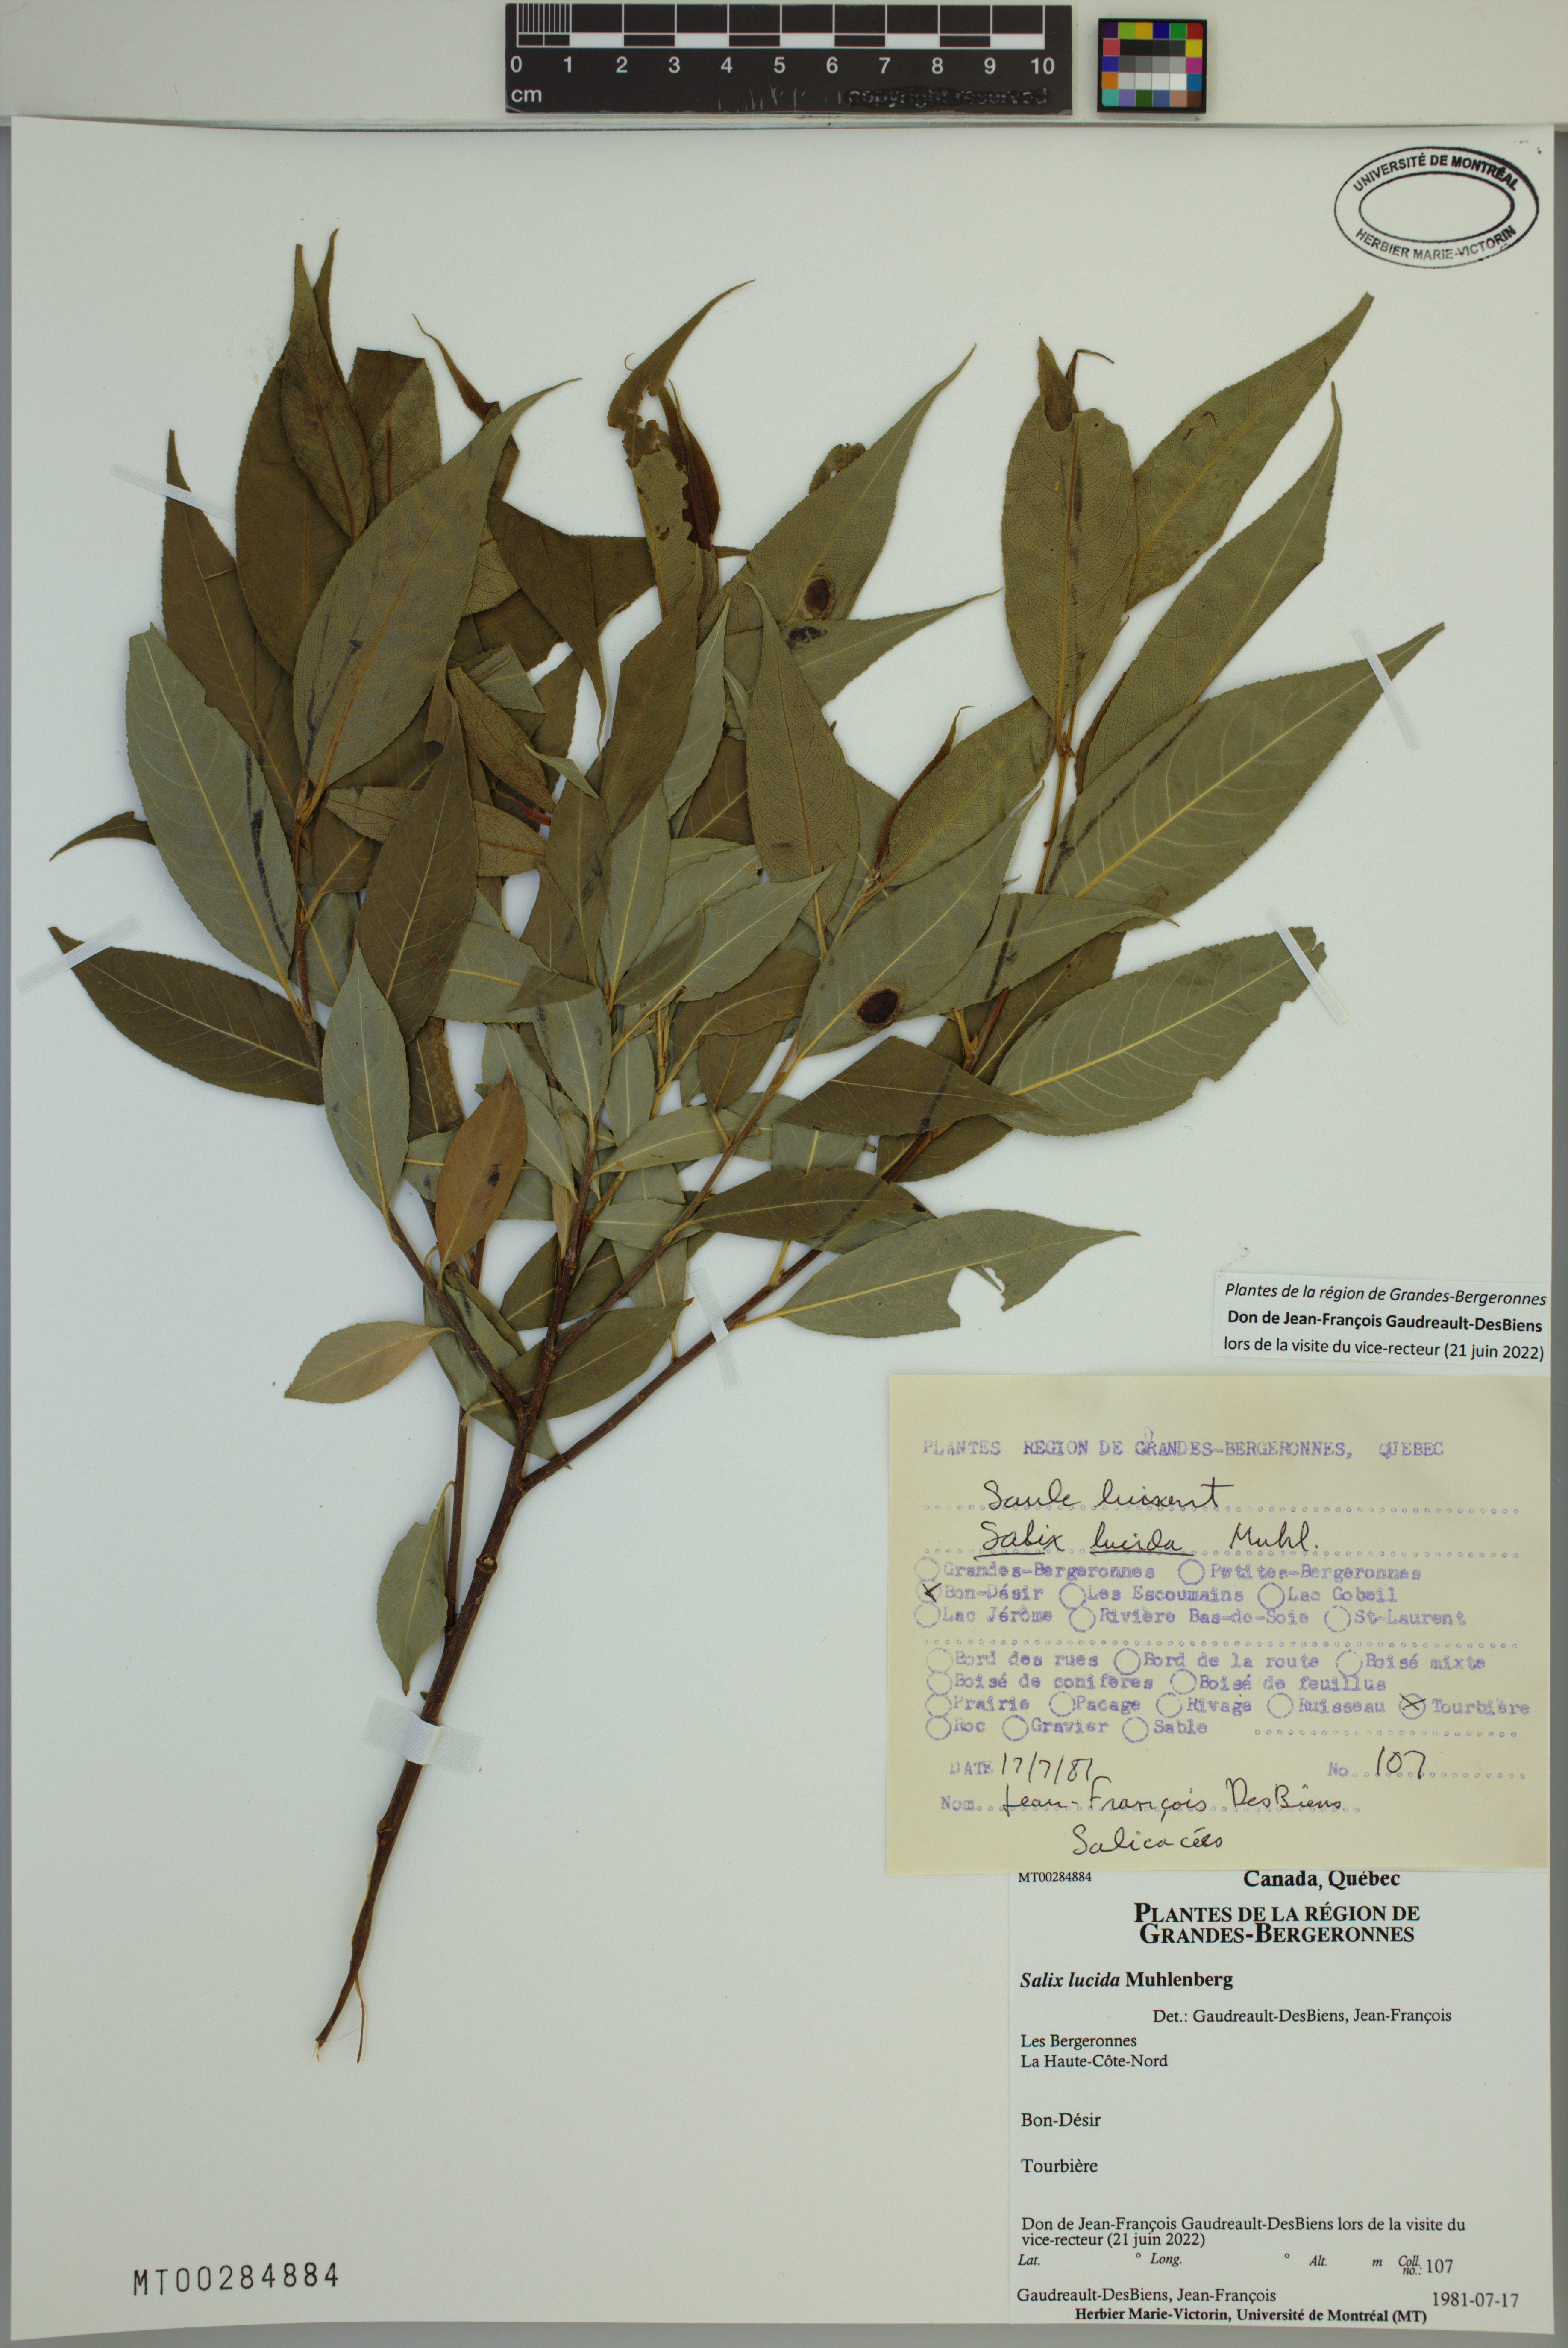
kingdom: Plantae
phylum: Tracheophyta
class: Magnoliopsida
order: Malpighiales
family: Salicaceae
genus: Salix
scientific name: Salix lucida
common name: Shining willow
